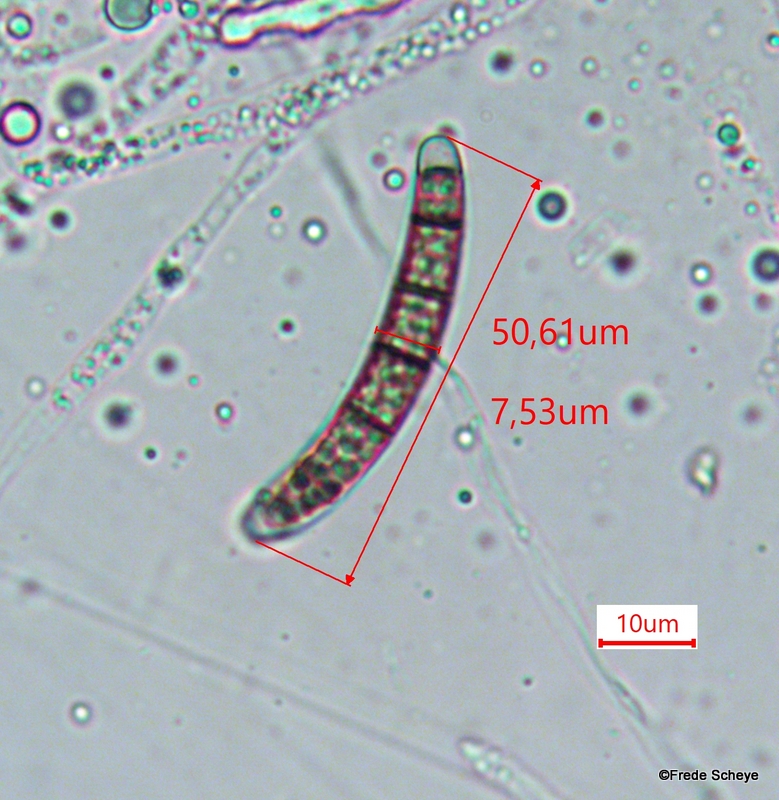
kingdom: Fungi
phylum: Ascomycota
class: Sordariomycetes
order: Xylariales
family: Melogrammataceae
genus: Melogramma
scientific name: Melogramma spiniferum
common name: bøgefod-kulhals
